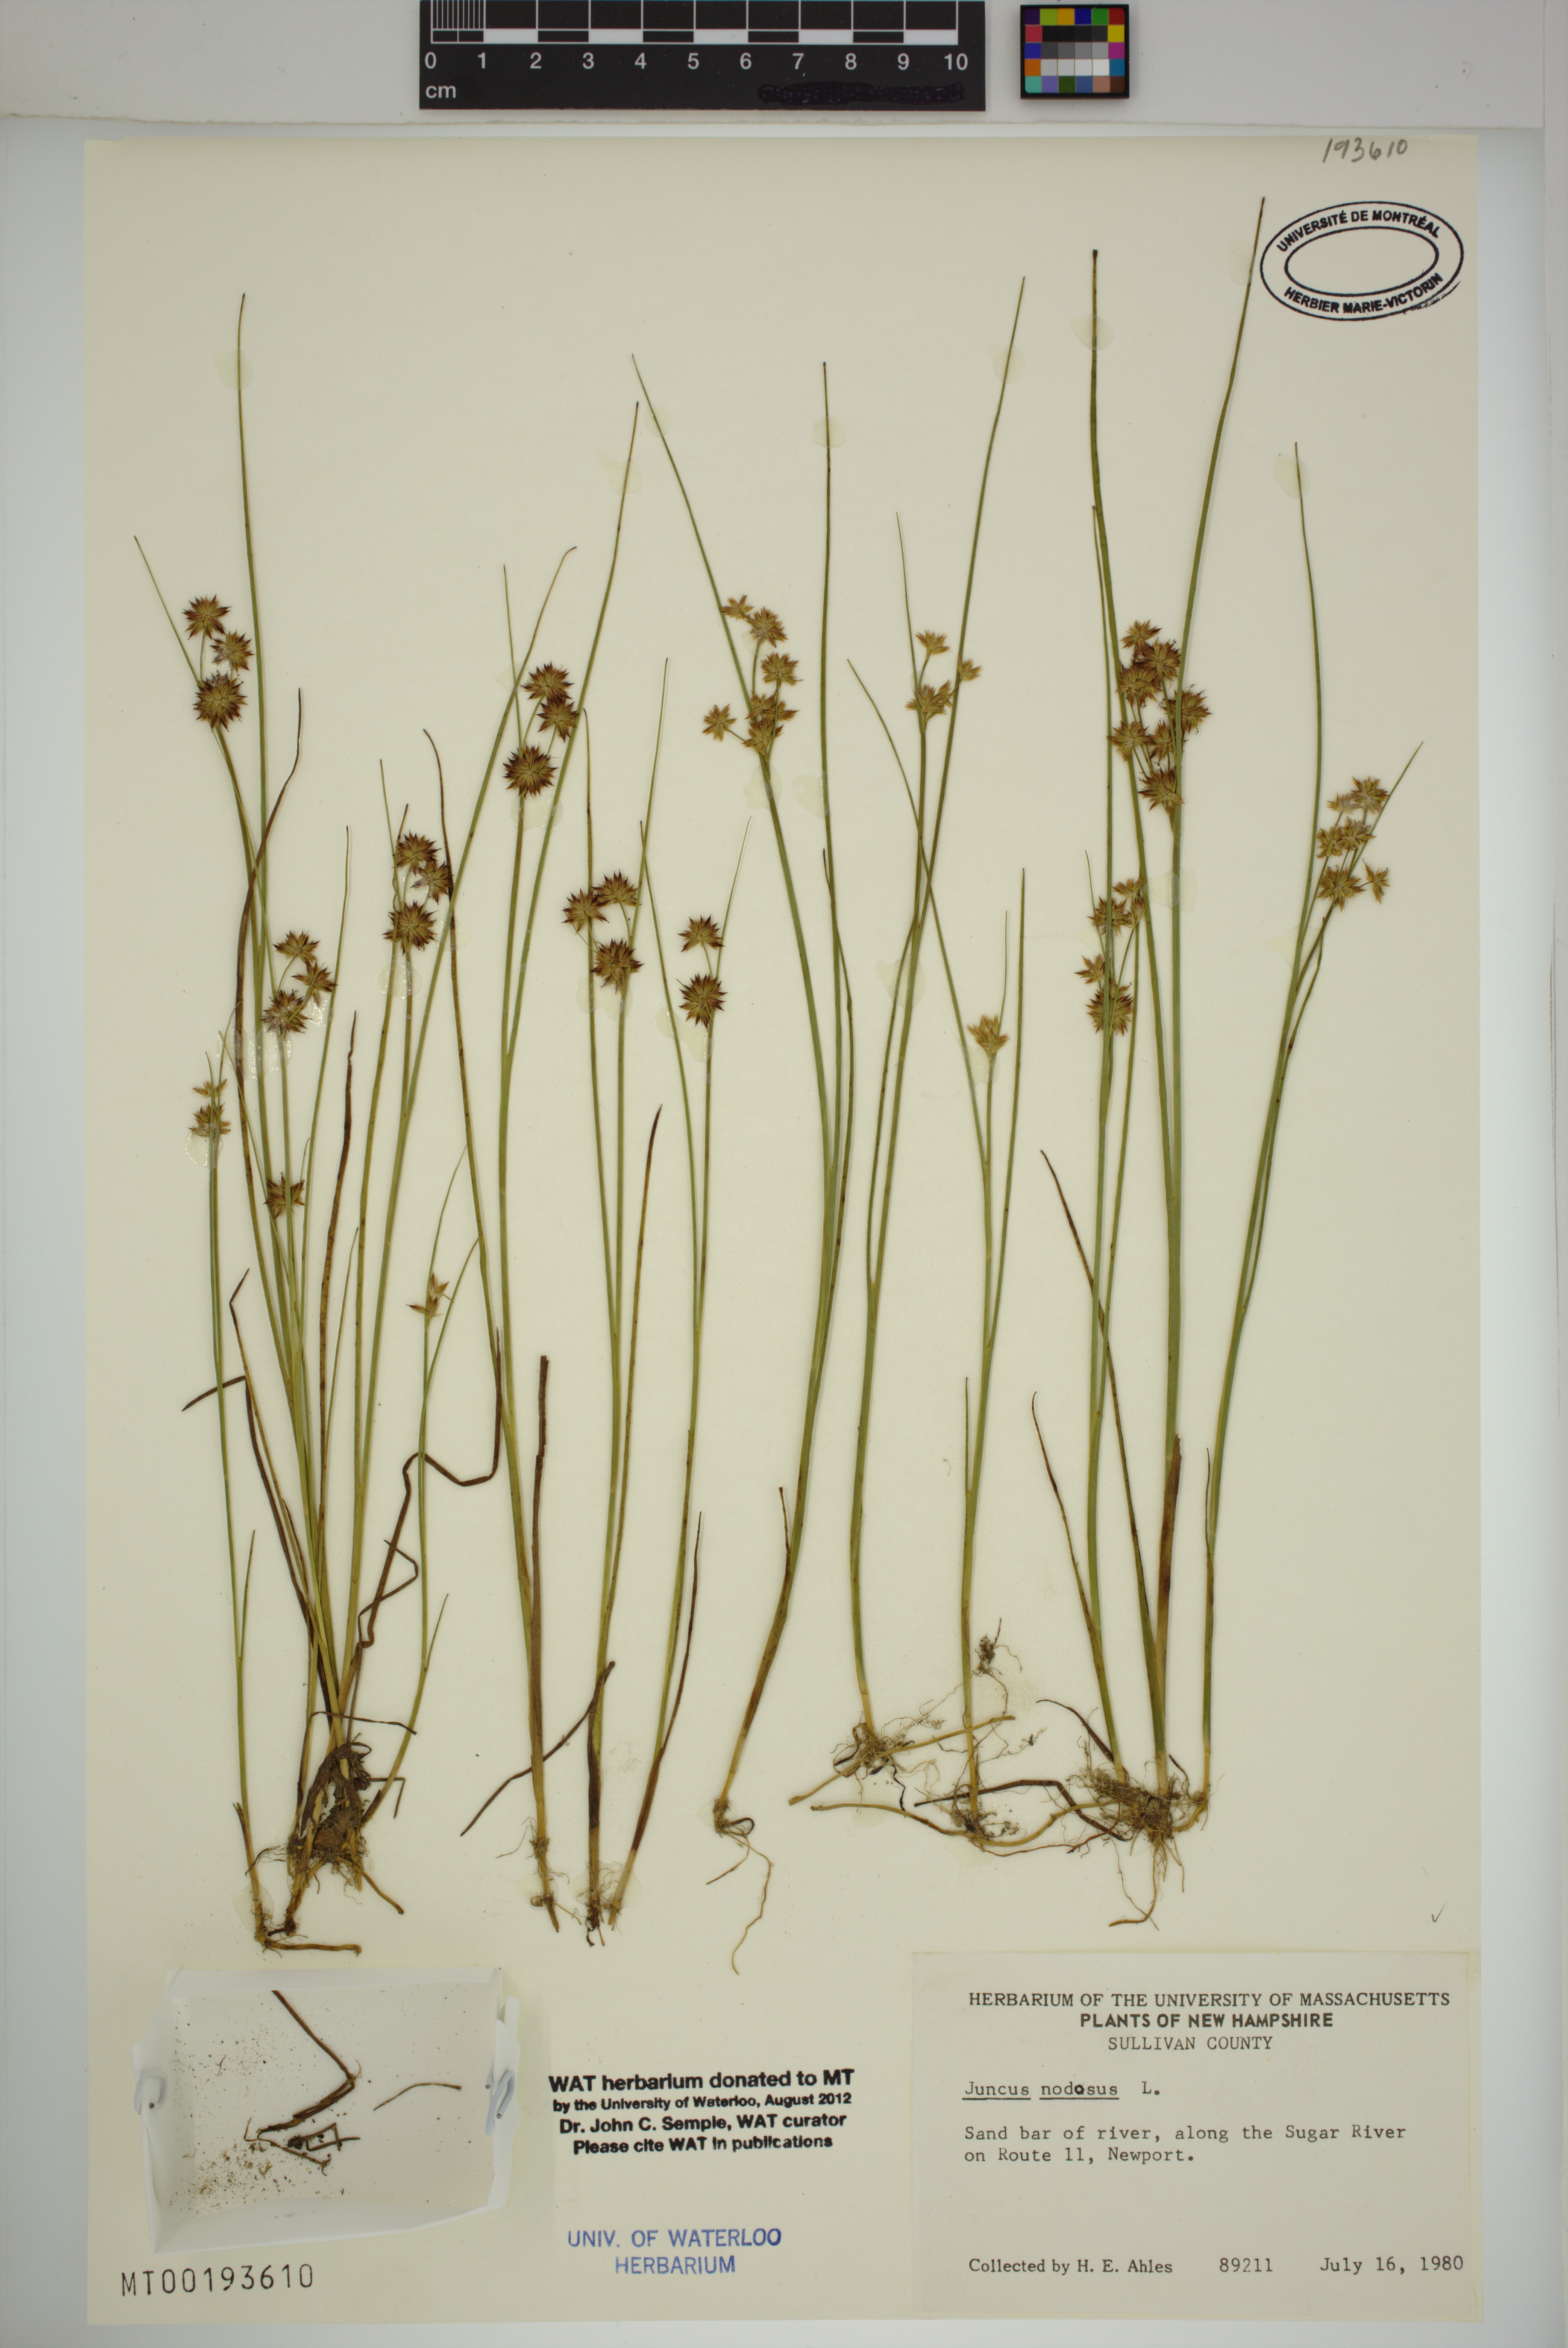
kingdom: Plantae
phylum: Tracheophyta
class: Liliopsida
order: Poales
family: Juncaceae
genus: Juncus
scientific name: Juncus nodosus
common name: Knotted rush
